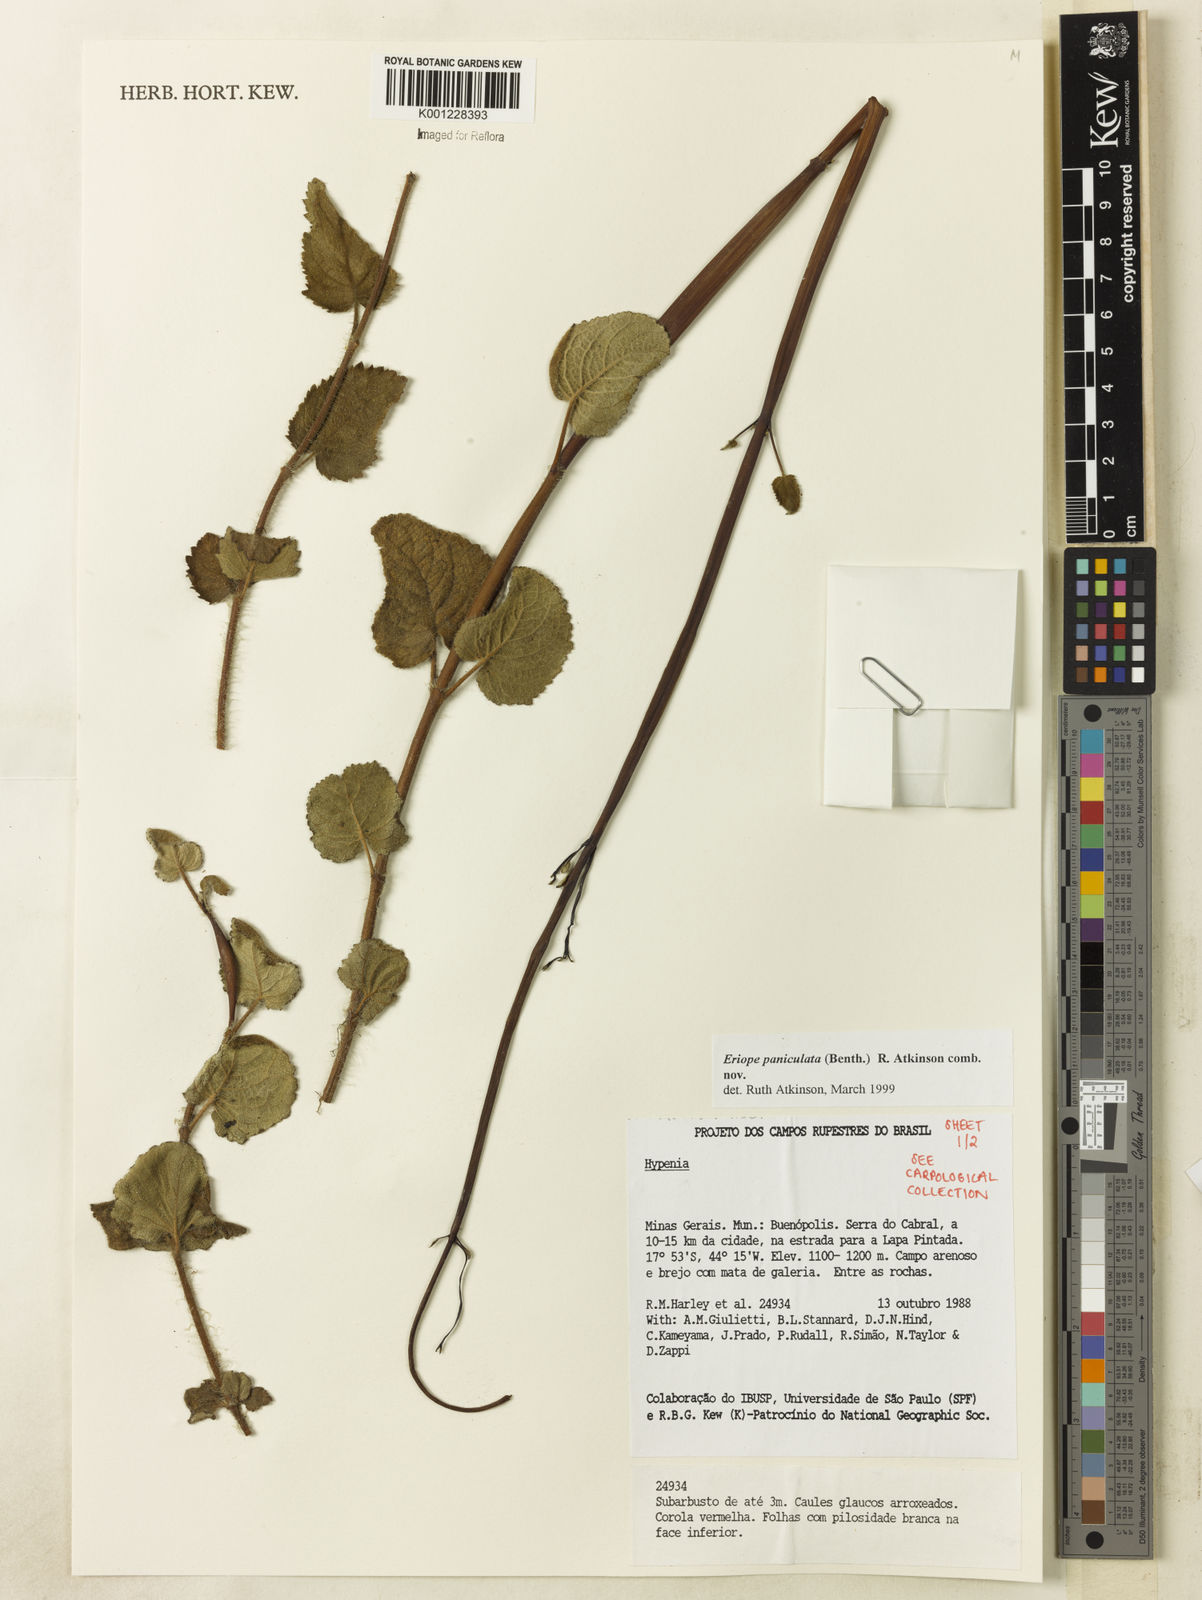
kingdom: Plantae
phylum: Tracheophyta
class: Magnoliopsida
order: Lamiales
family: Lamiaceae
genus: Hypenia
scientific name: Hypenia paniculata
